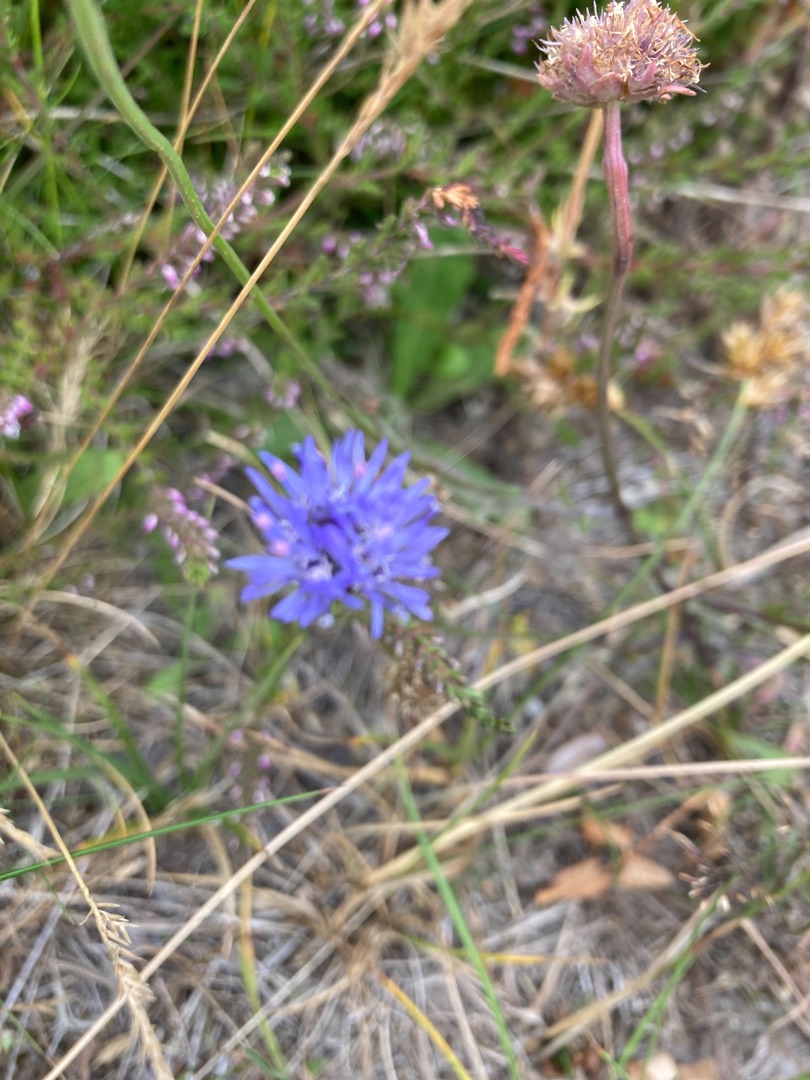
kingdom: Plantae
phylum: Tracheophyta
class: Magnoliopsida
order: Asterales
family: Campanulaceae
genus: Jasione
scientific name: Jasione montana
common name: Blåmunke
